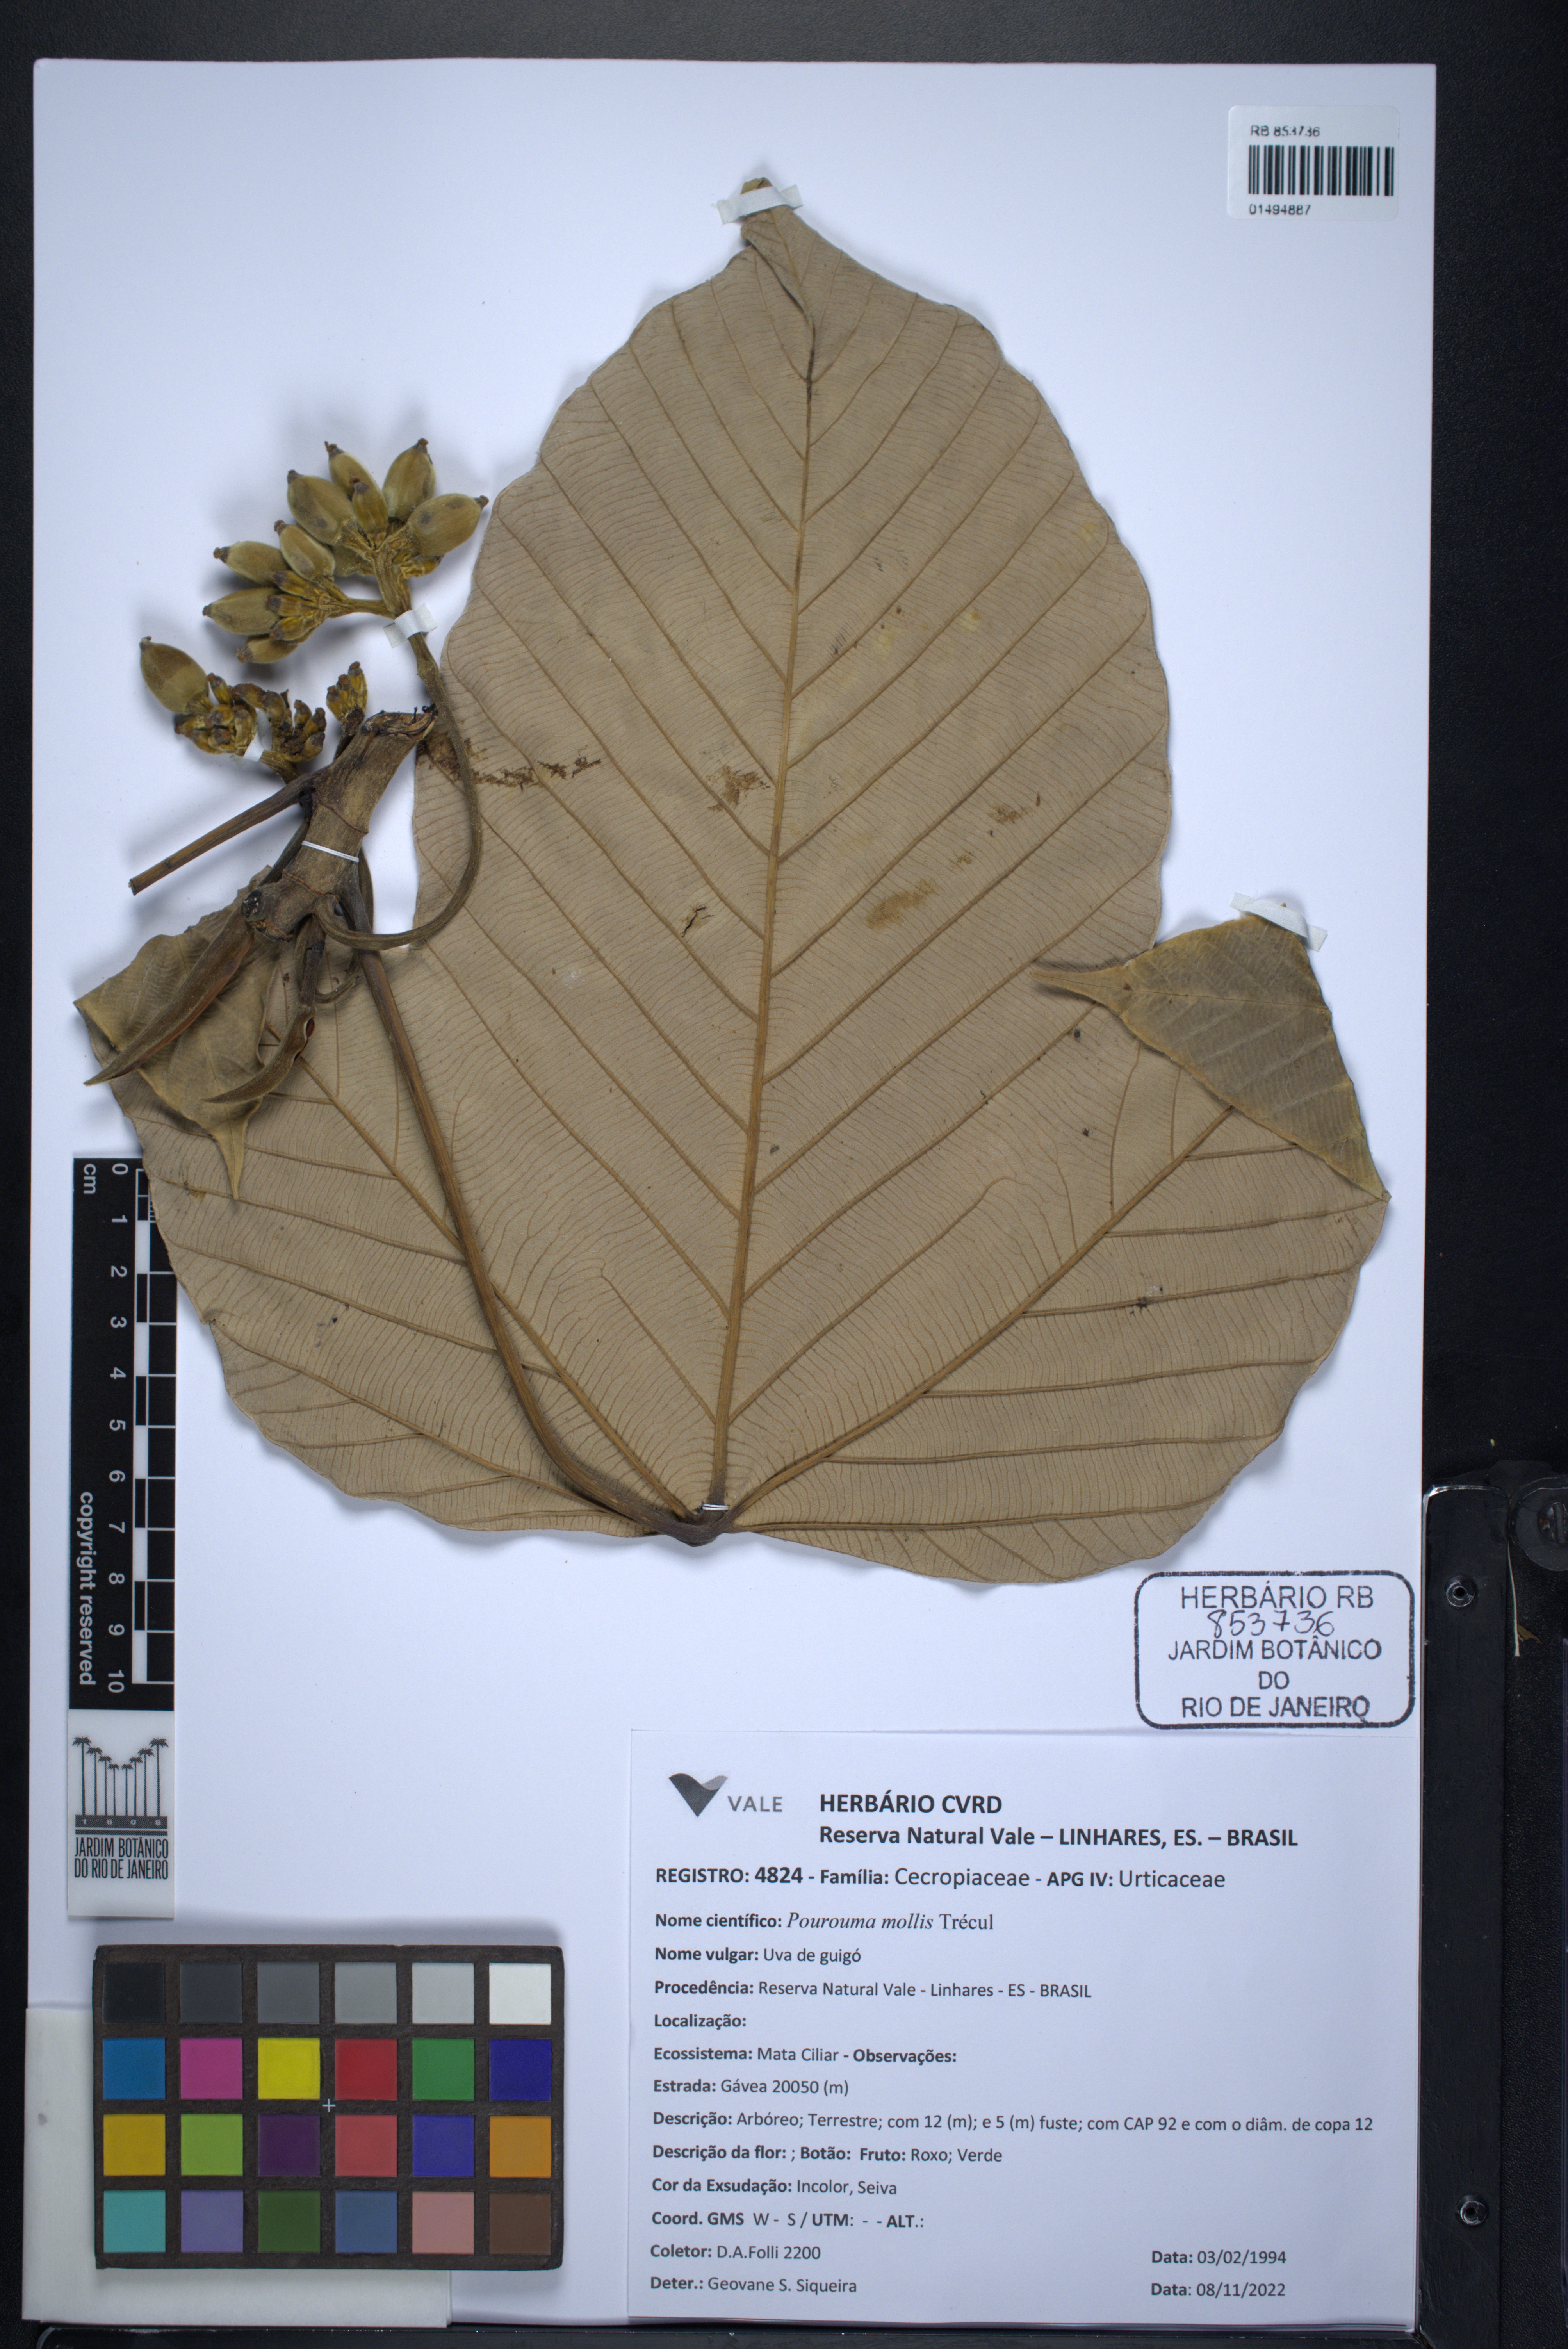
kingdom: Plantae
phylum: Tracheophyta
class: Magnoliopsida
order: Rosales
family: Urticaceae
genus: Pourouma
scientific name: Pourouma mollis
